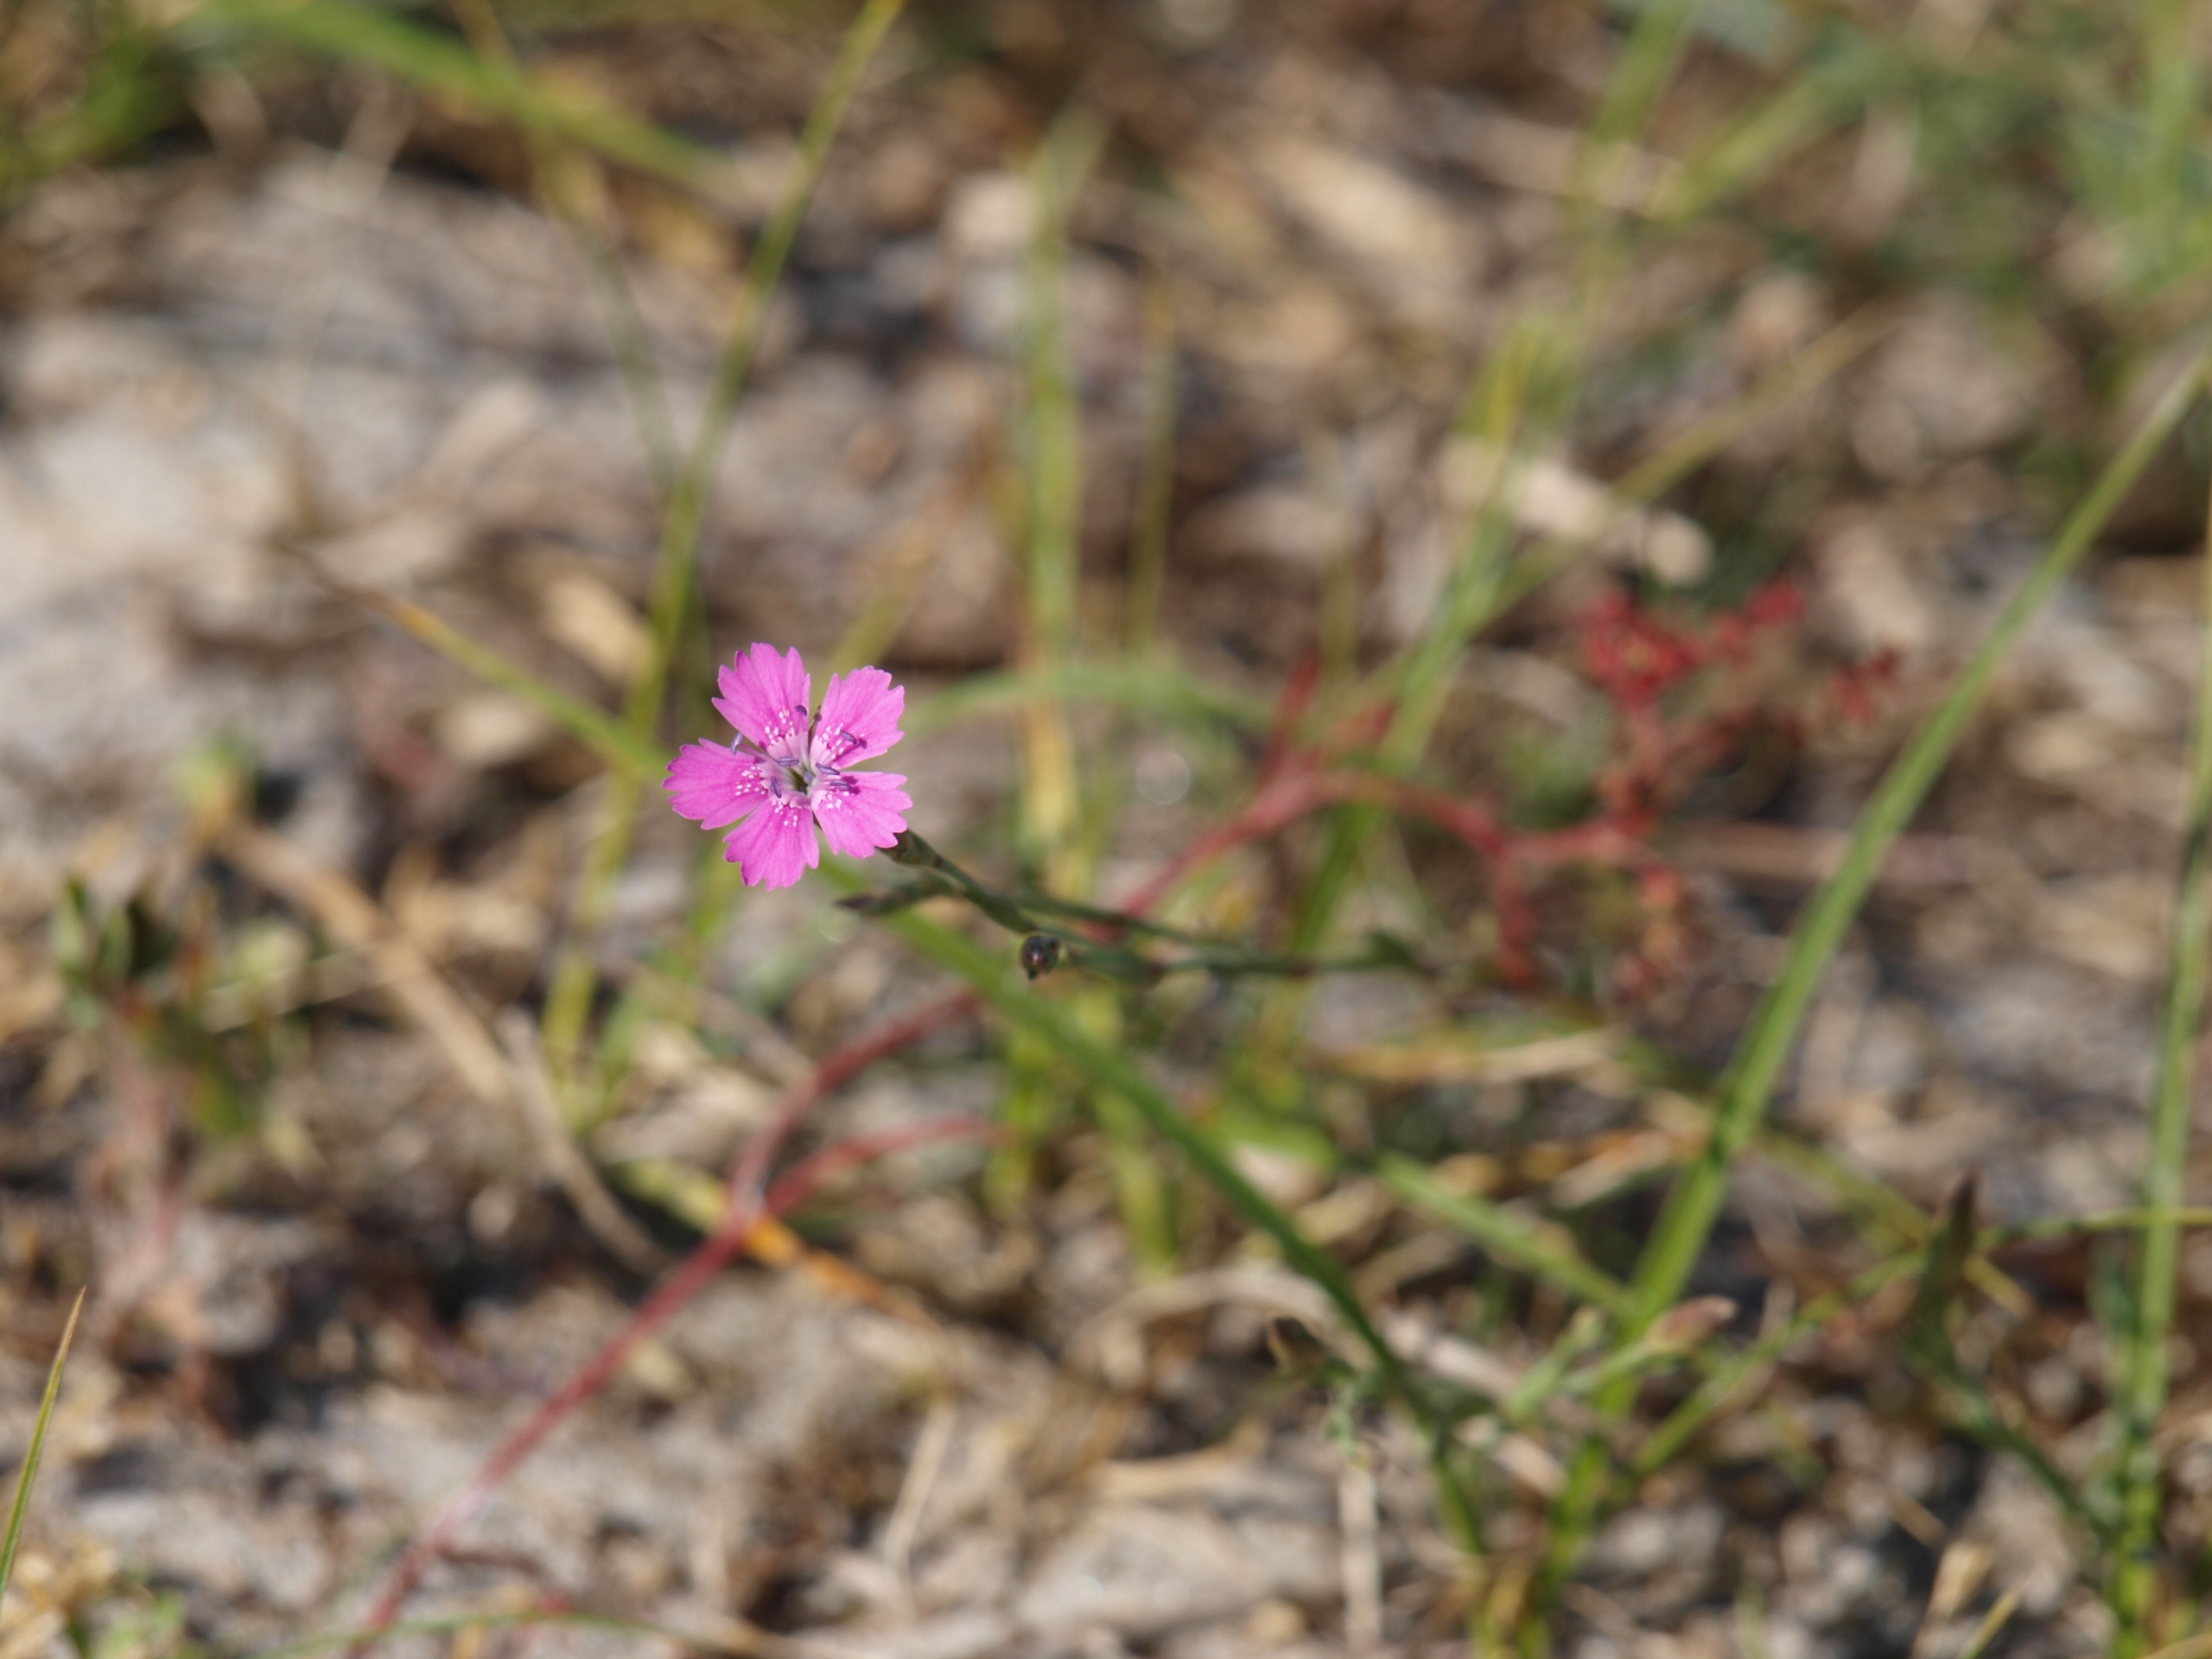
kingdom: Plantae
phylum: Tracheophyta
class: Magnoliopsida
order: Caryophyllales
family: Caryophyllaceae
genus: Dianthus
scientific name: Dianthus deltoides
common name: Bakke-nellike
